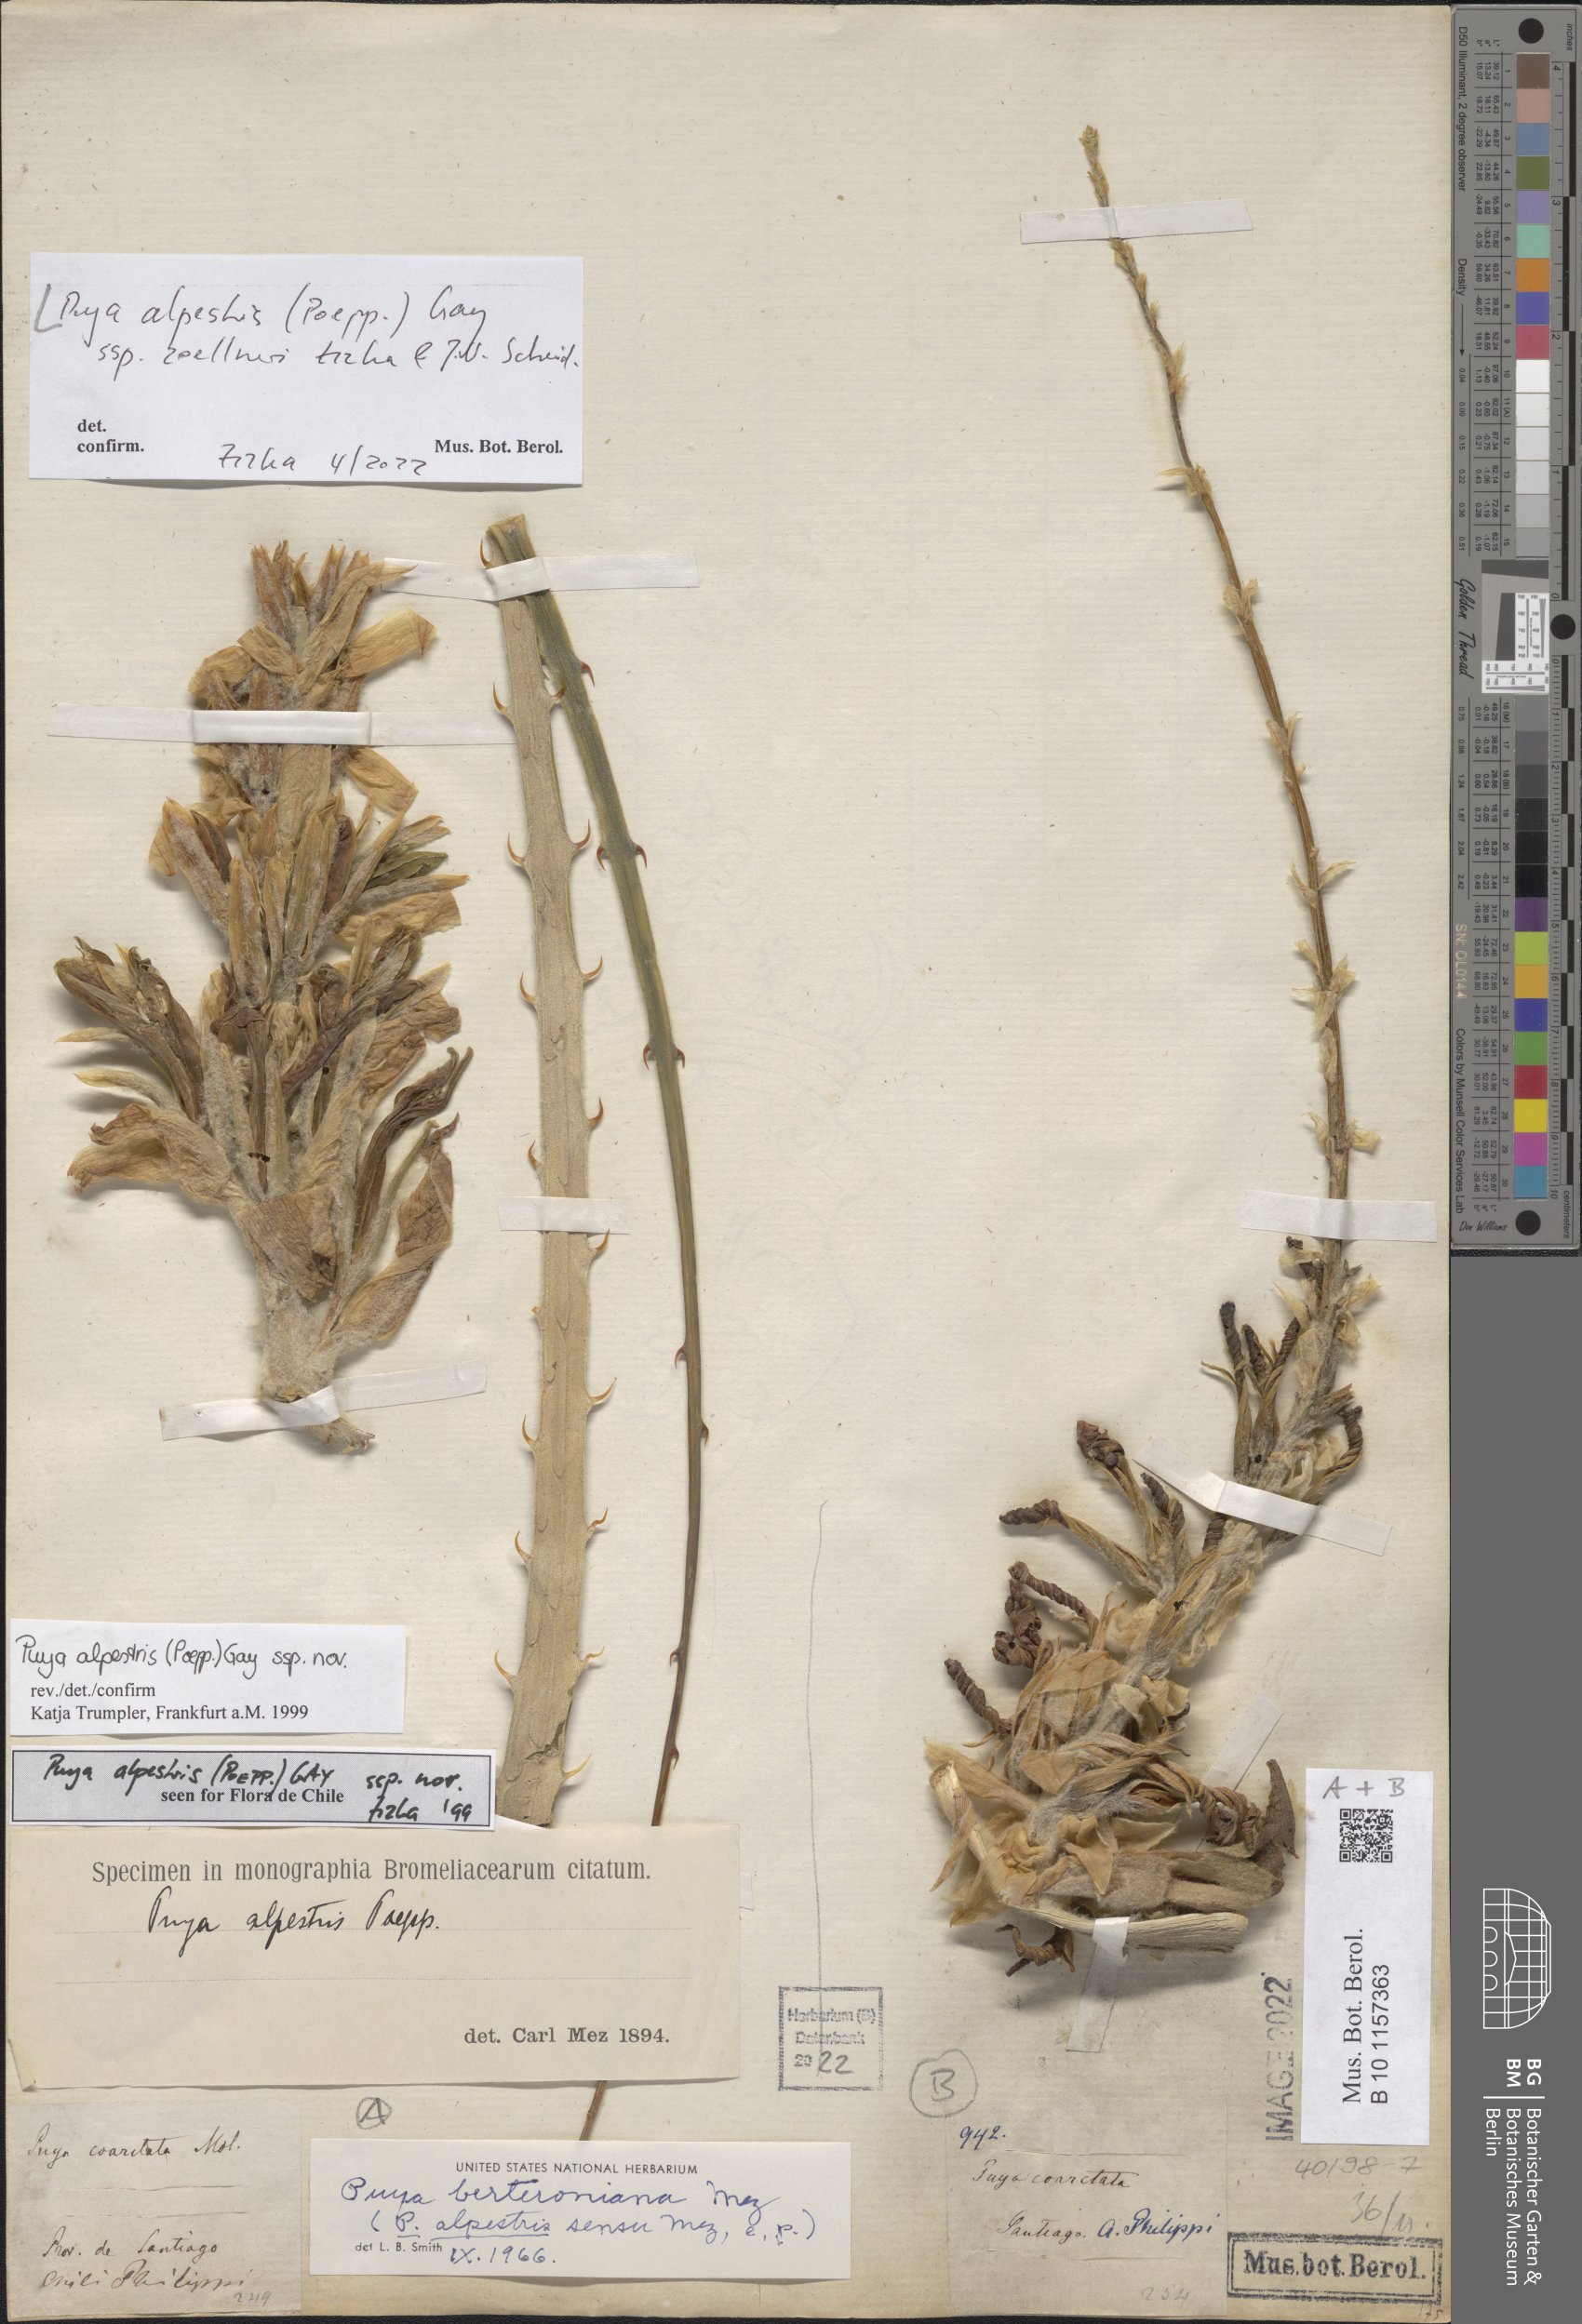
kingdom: Plantae
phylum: Tracheophyta
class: Liliopsida
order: Poales
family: Bromeliaceae
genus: Puya
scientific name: Puya alpestris
